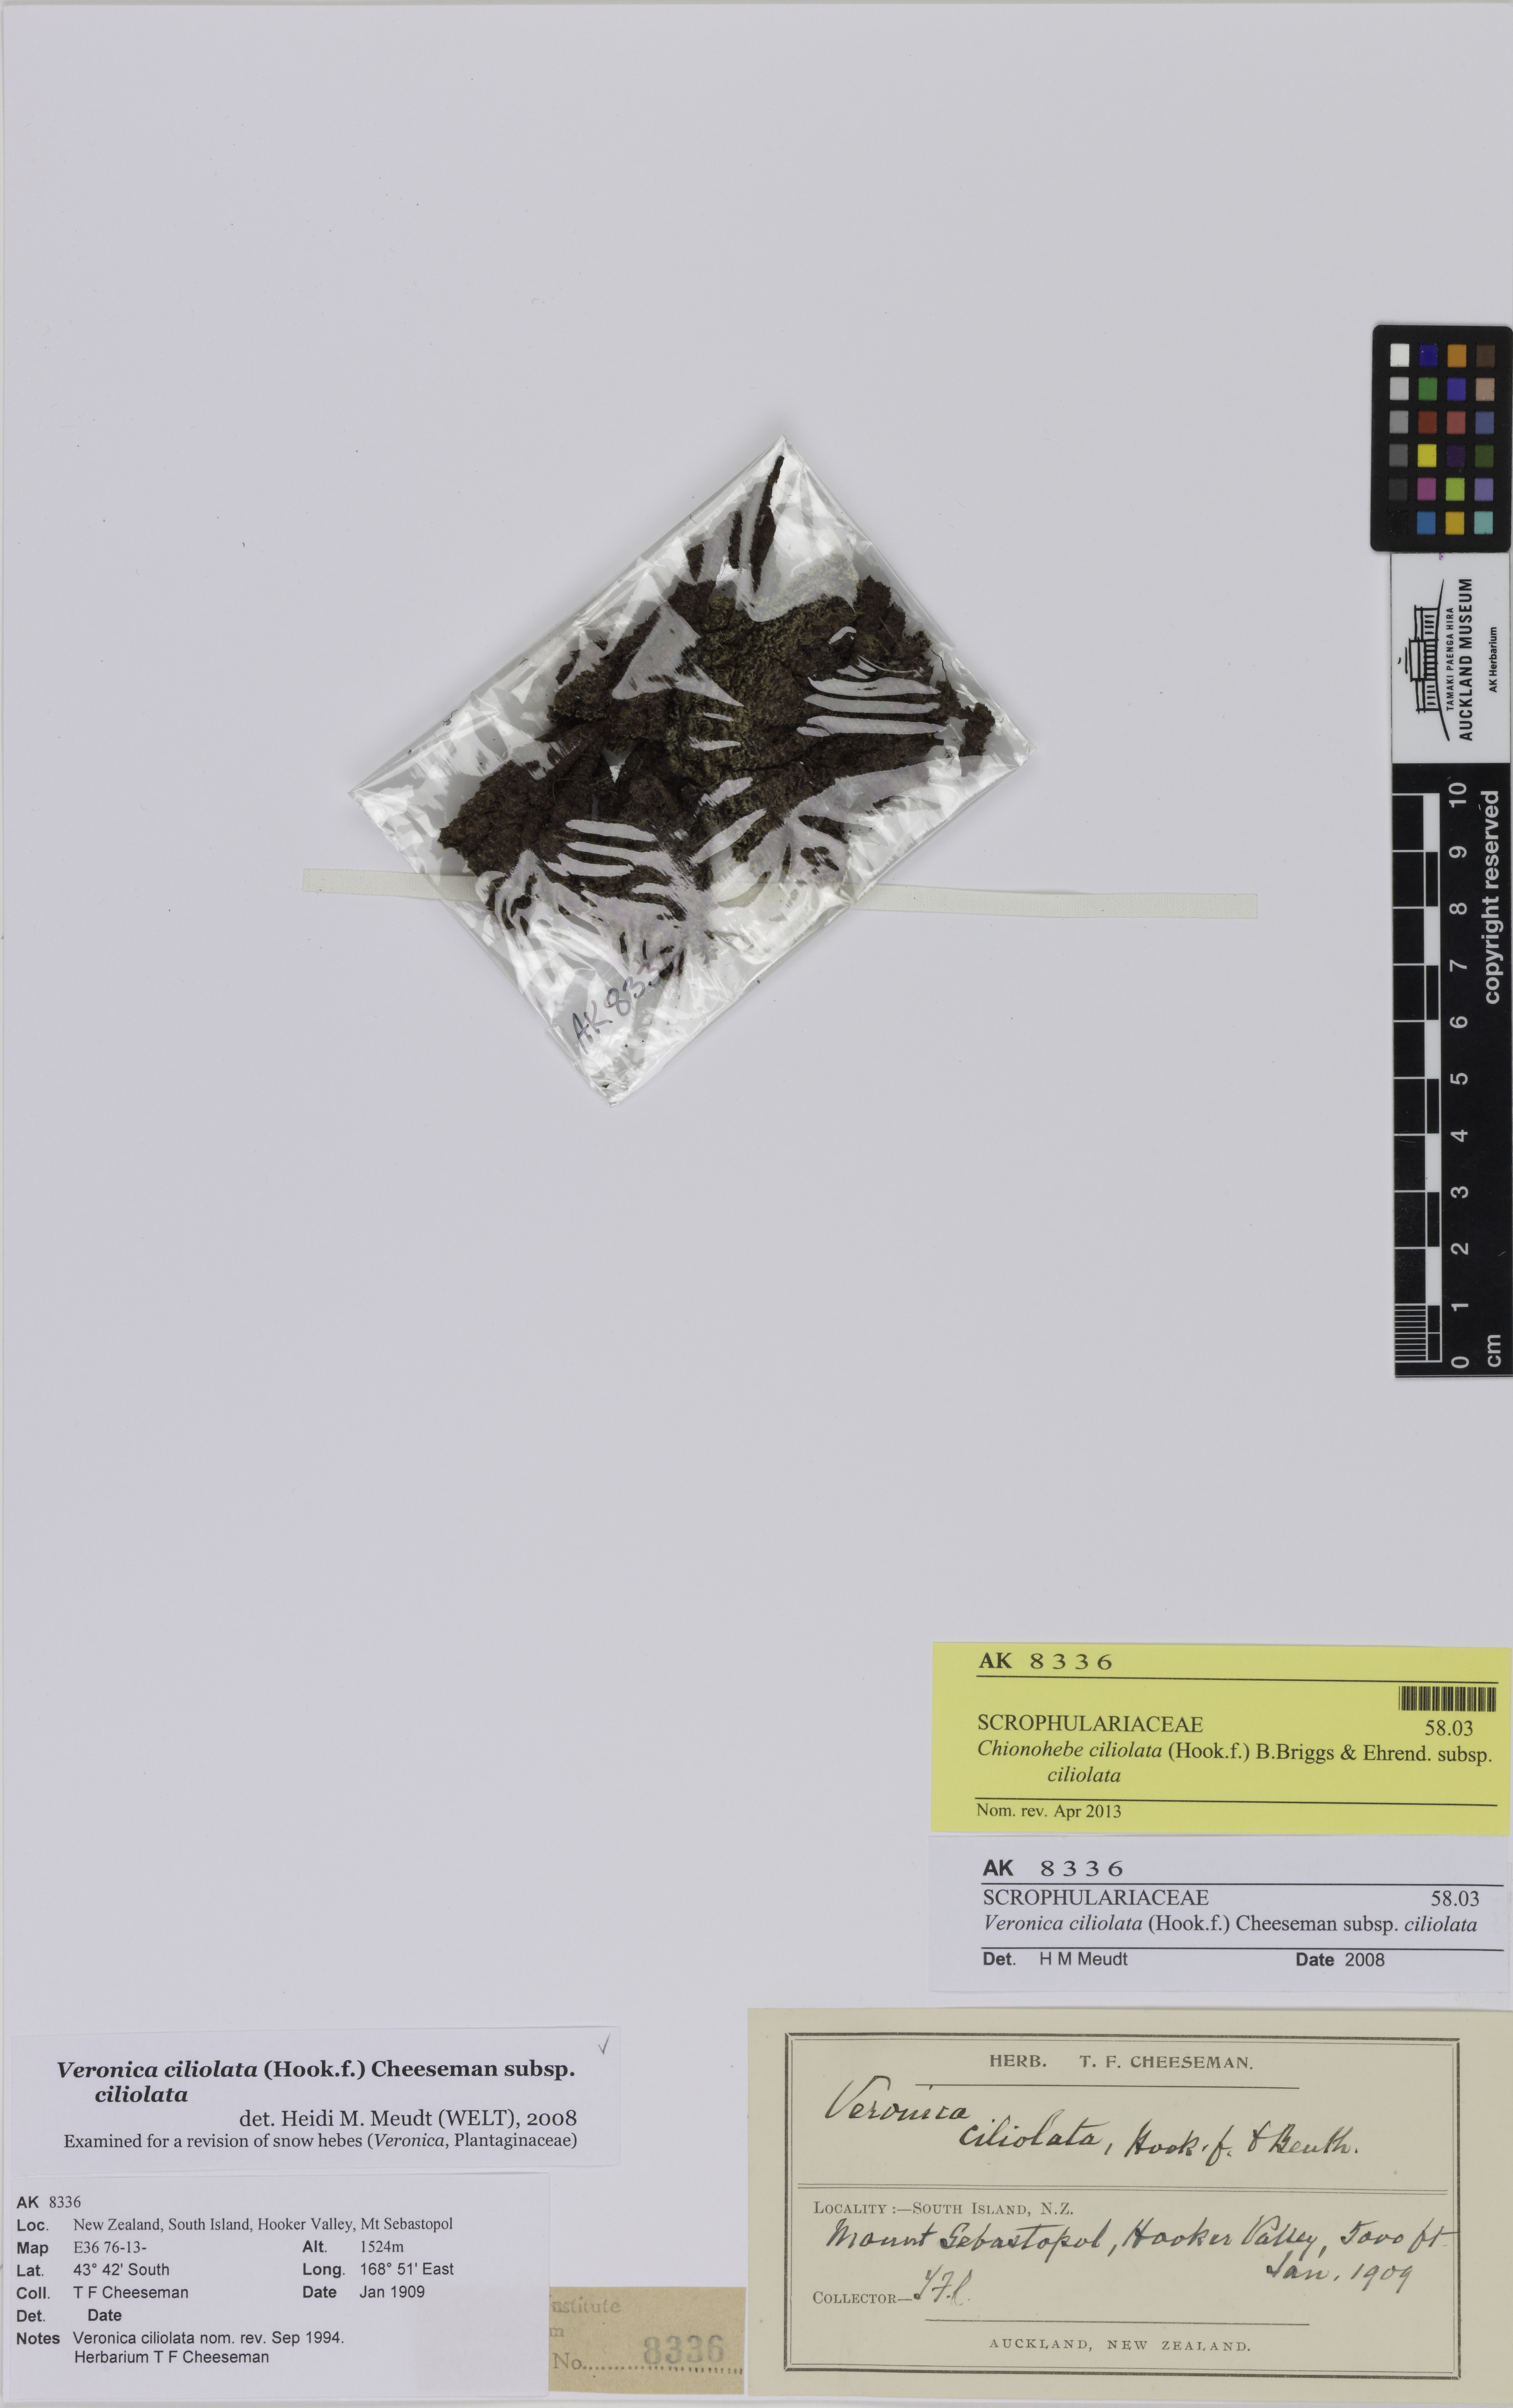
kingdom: Plantae
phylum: Tracheophyta
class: Magnoliopsida
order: Lamiales
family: Plantaginaceae
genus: Veronica
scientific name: Veronica ciliolata
